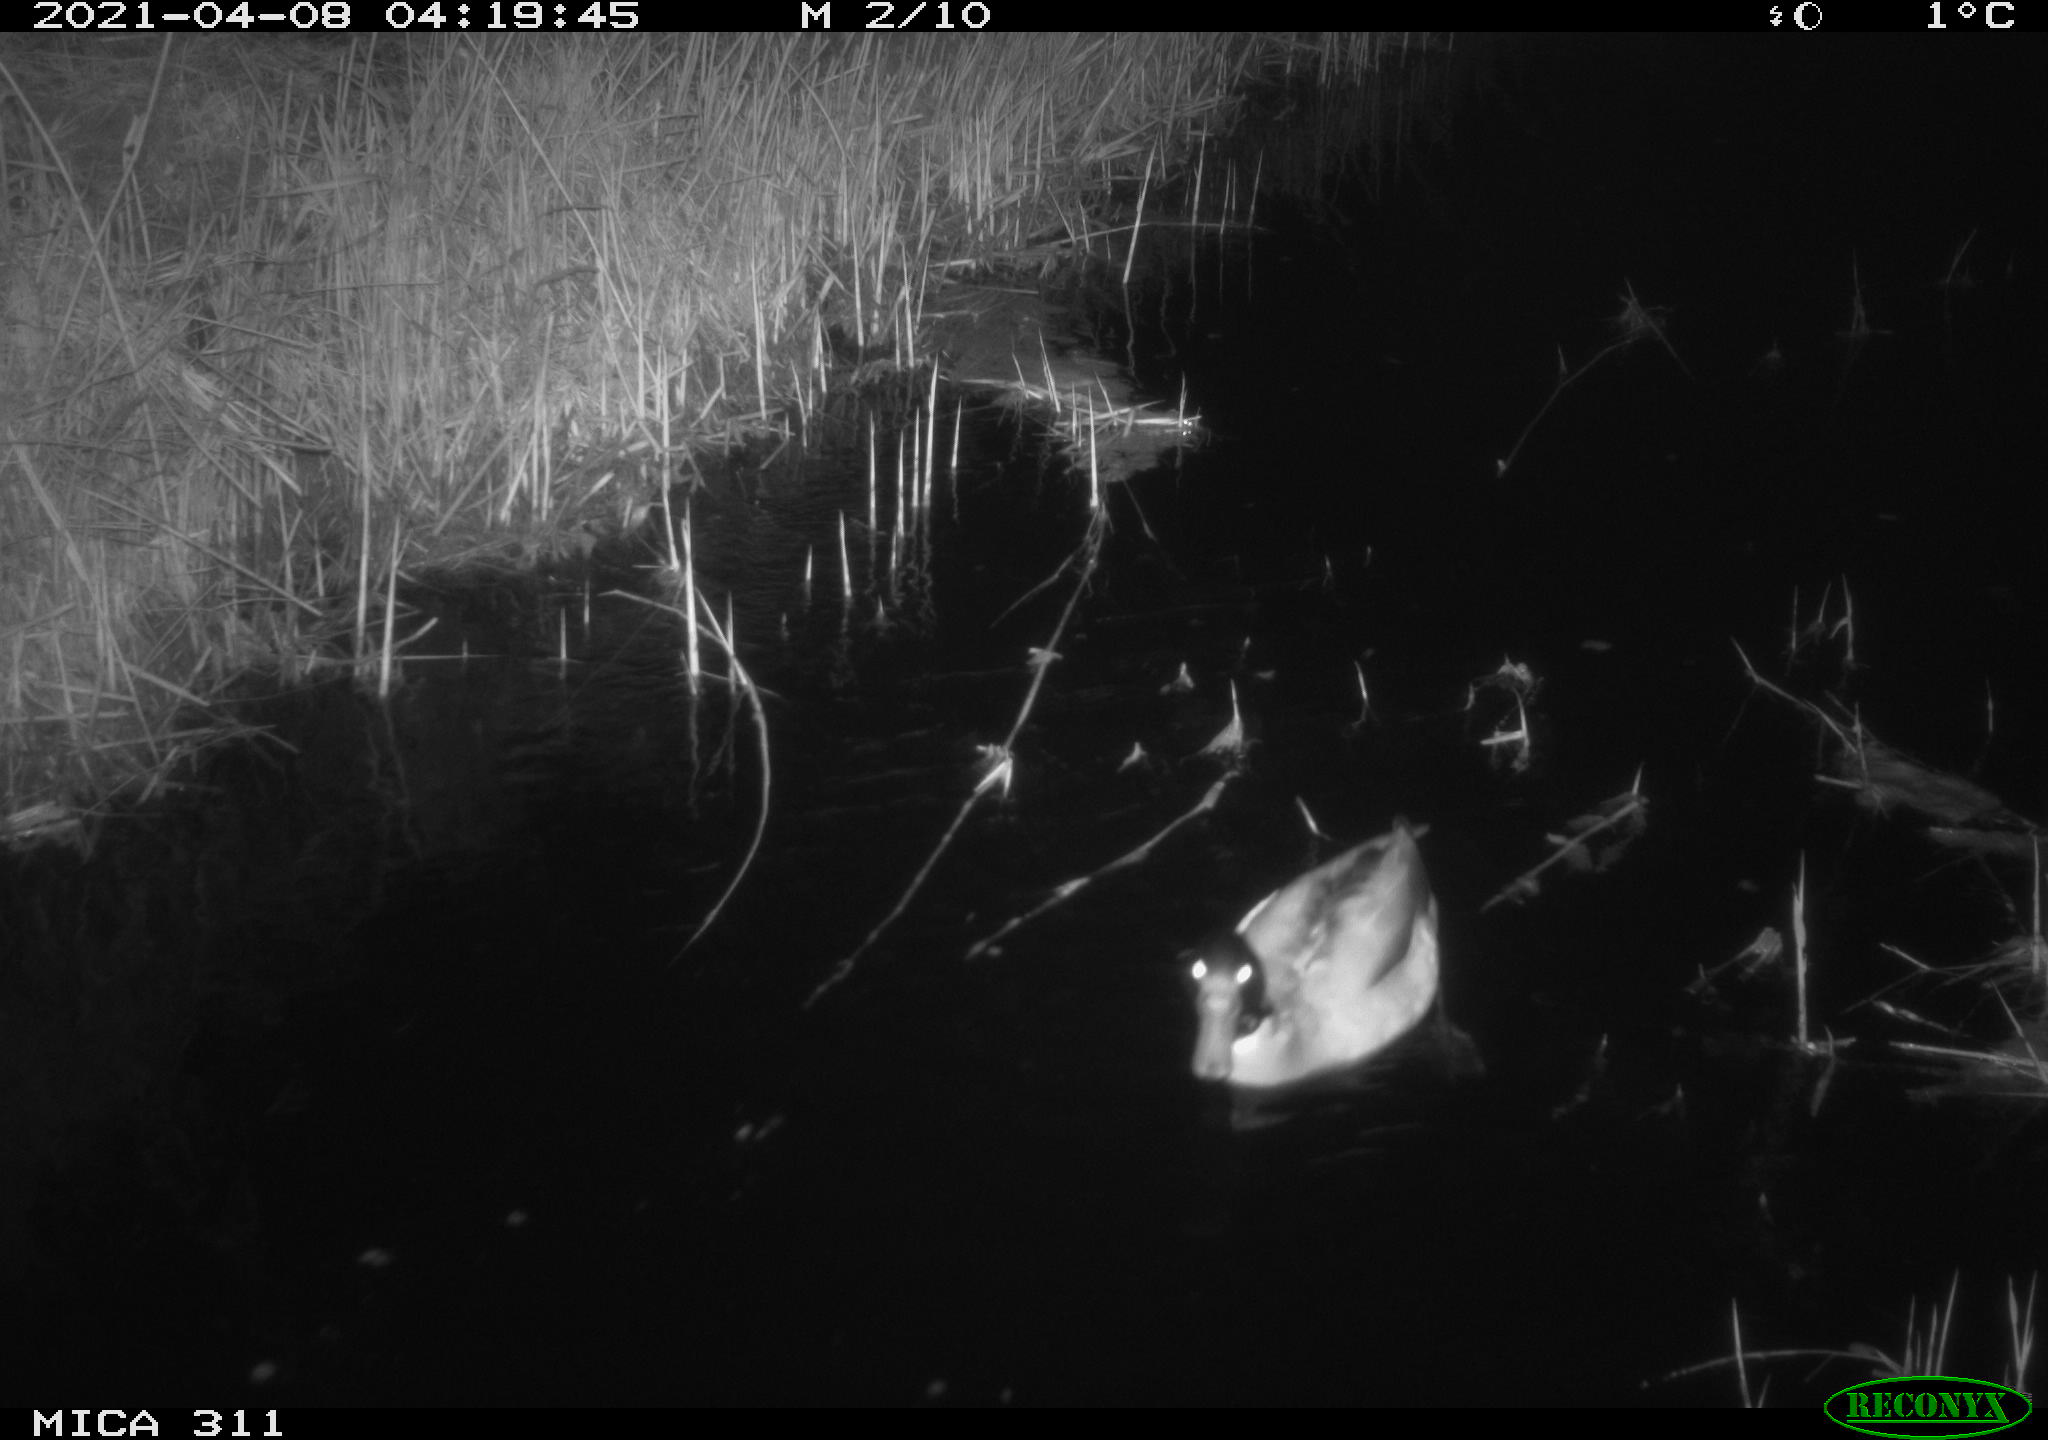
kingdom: Animalia
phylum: Chordata
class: Aves
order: Anseriformes
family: Anatidae
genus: Anas
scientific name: Anas platyrhynchos
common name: Mallard
